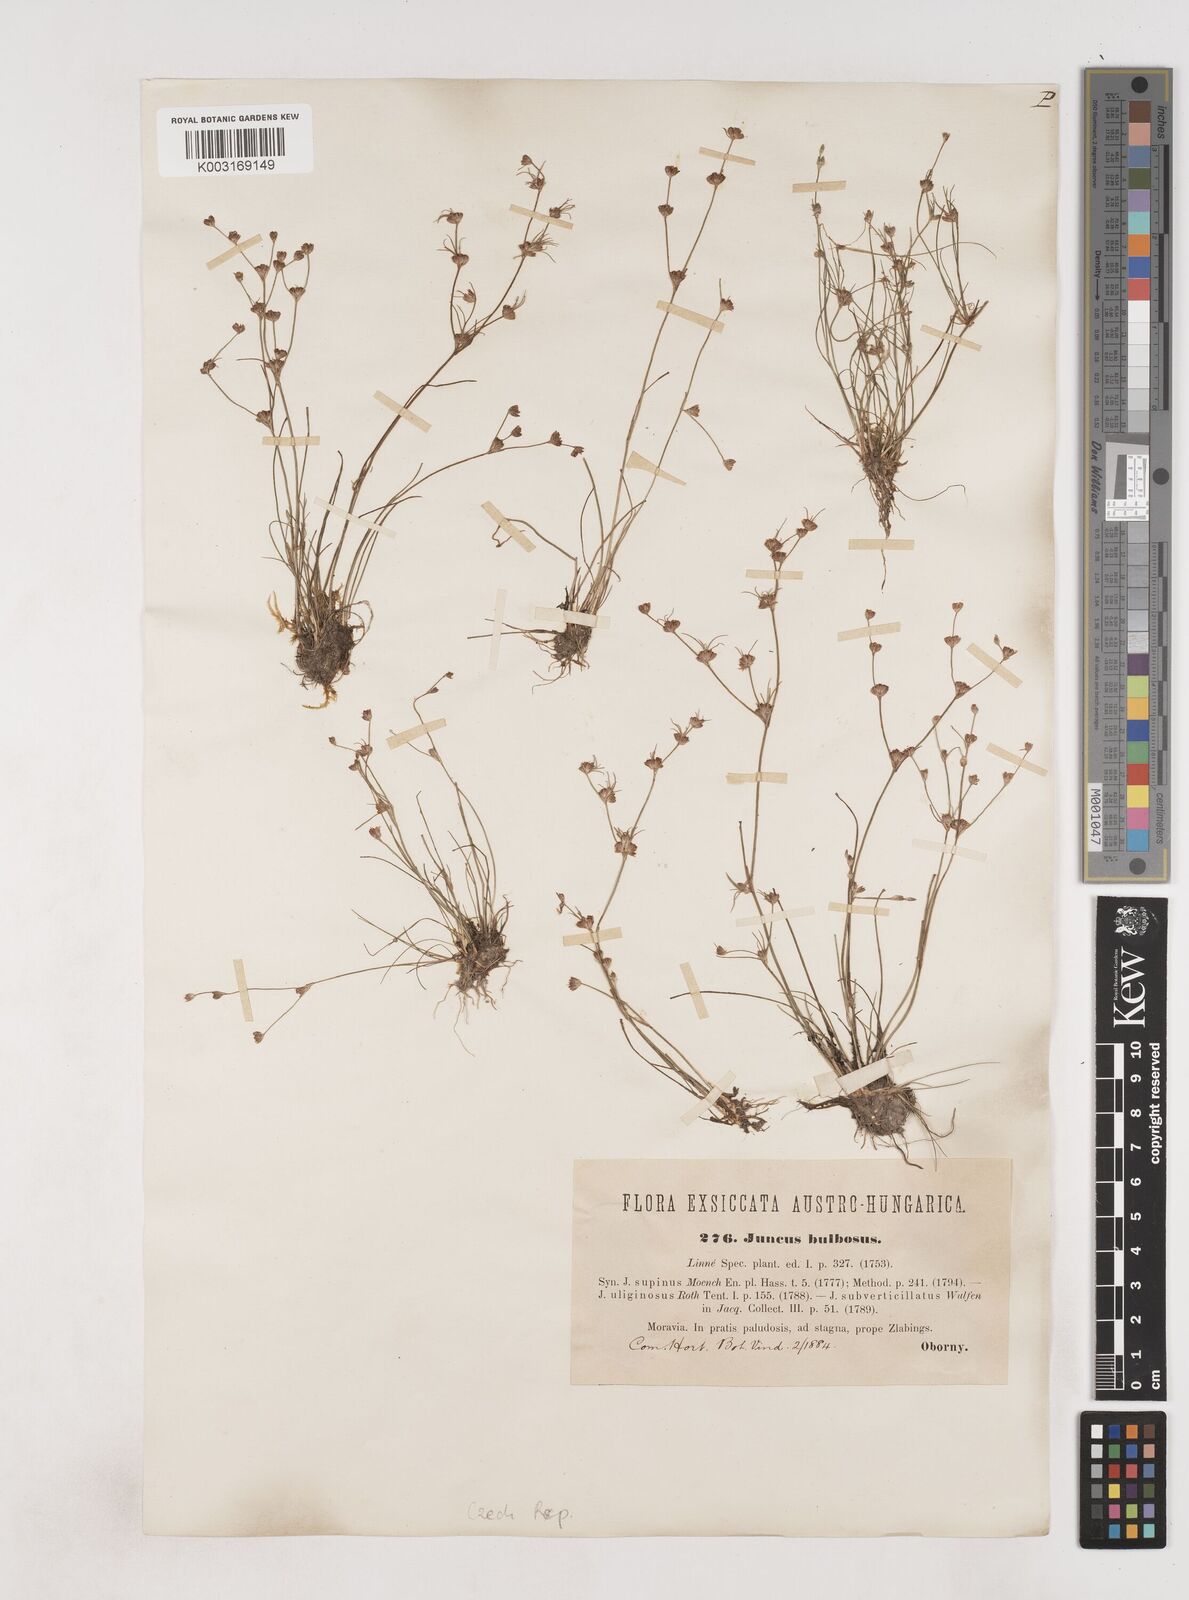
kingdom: Plantae
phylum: Tracheophyta
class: Liliopsida
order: Poales
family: Juncaceae
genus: Juncus
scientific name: Juncus bulbosus
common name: Bulbous rush
